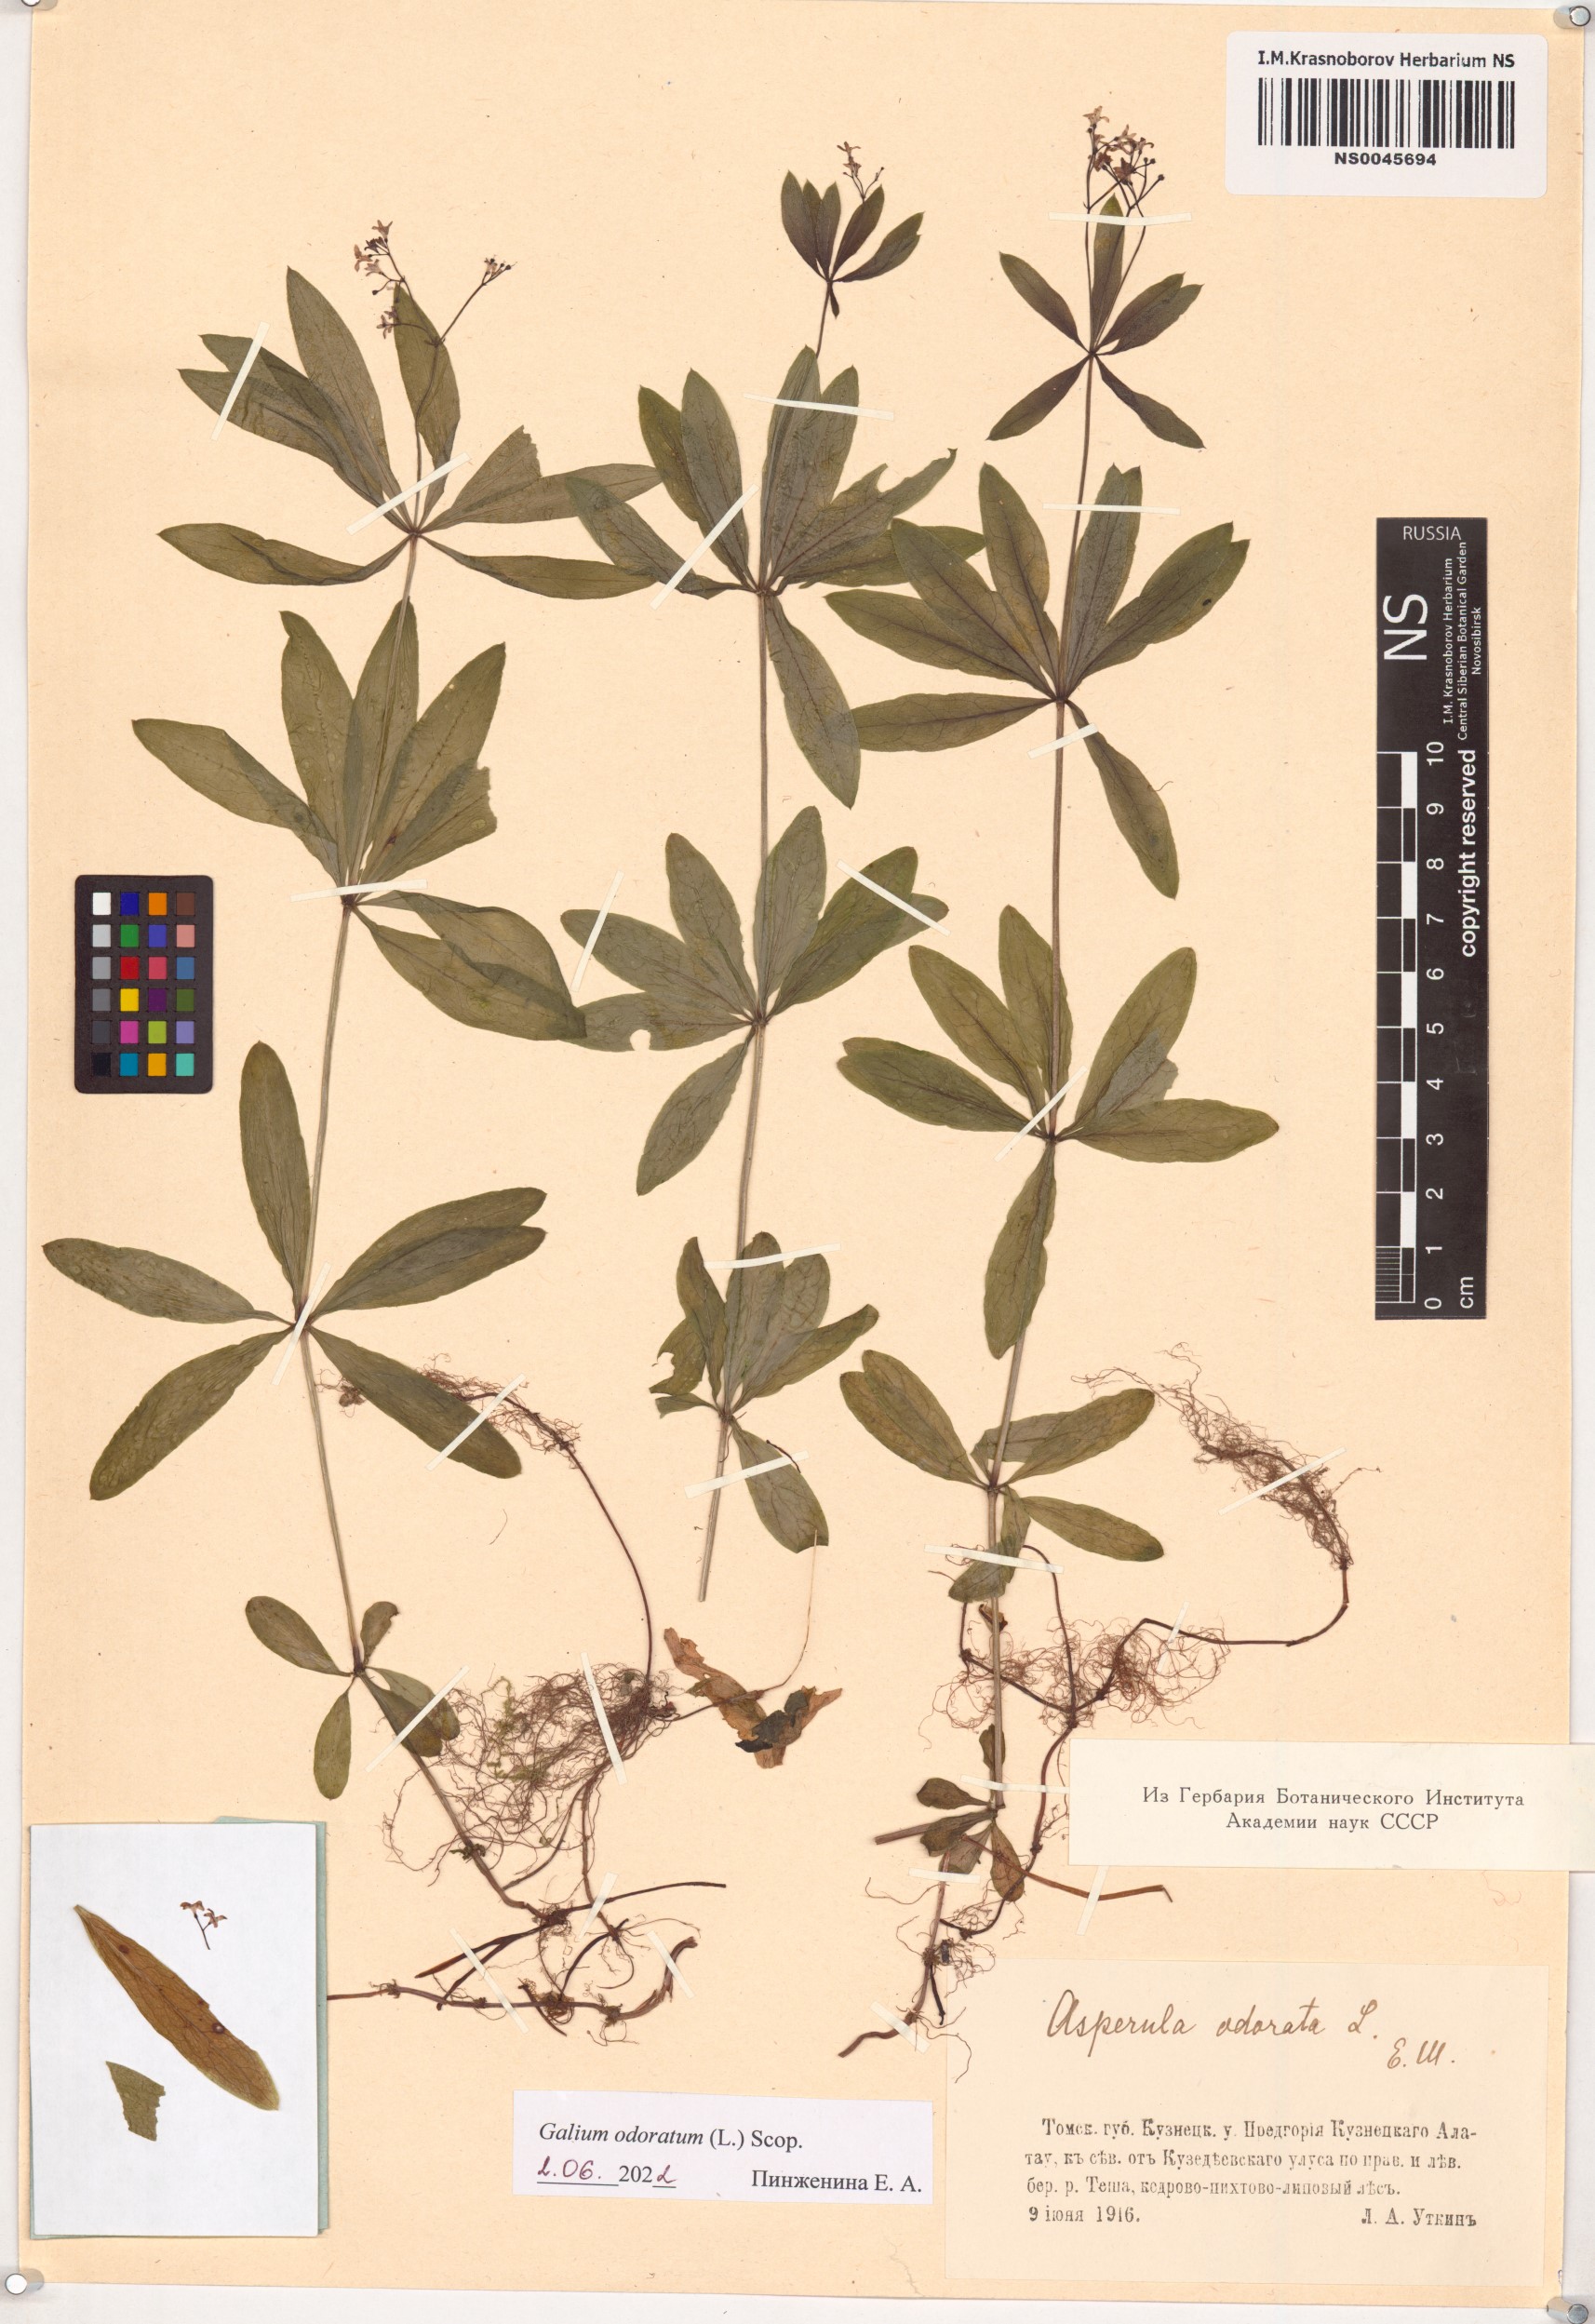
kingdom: Plantae
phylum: Tracheophyta
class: Magnoliopsida
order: Gentianales
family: Rubiaceae
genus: Galium
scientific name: Galium odoratum
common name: Sweet woodruff
